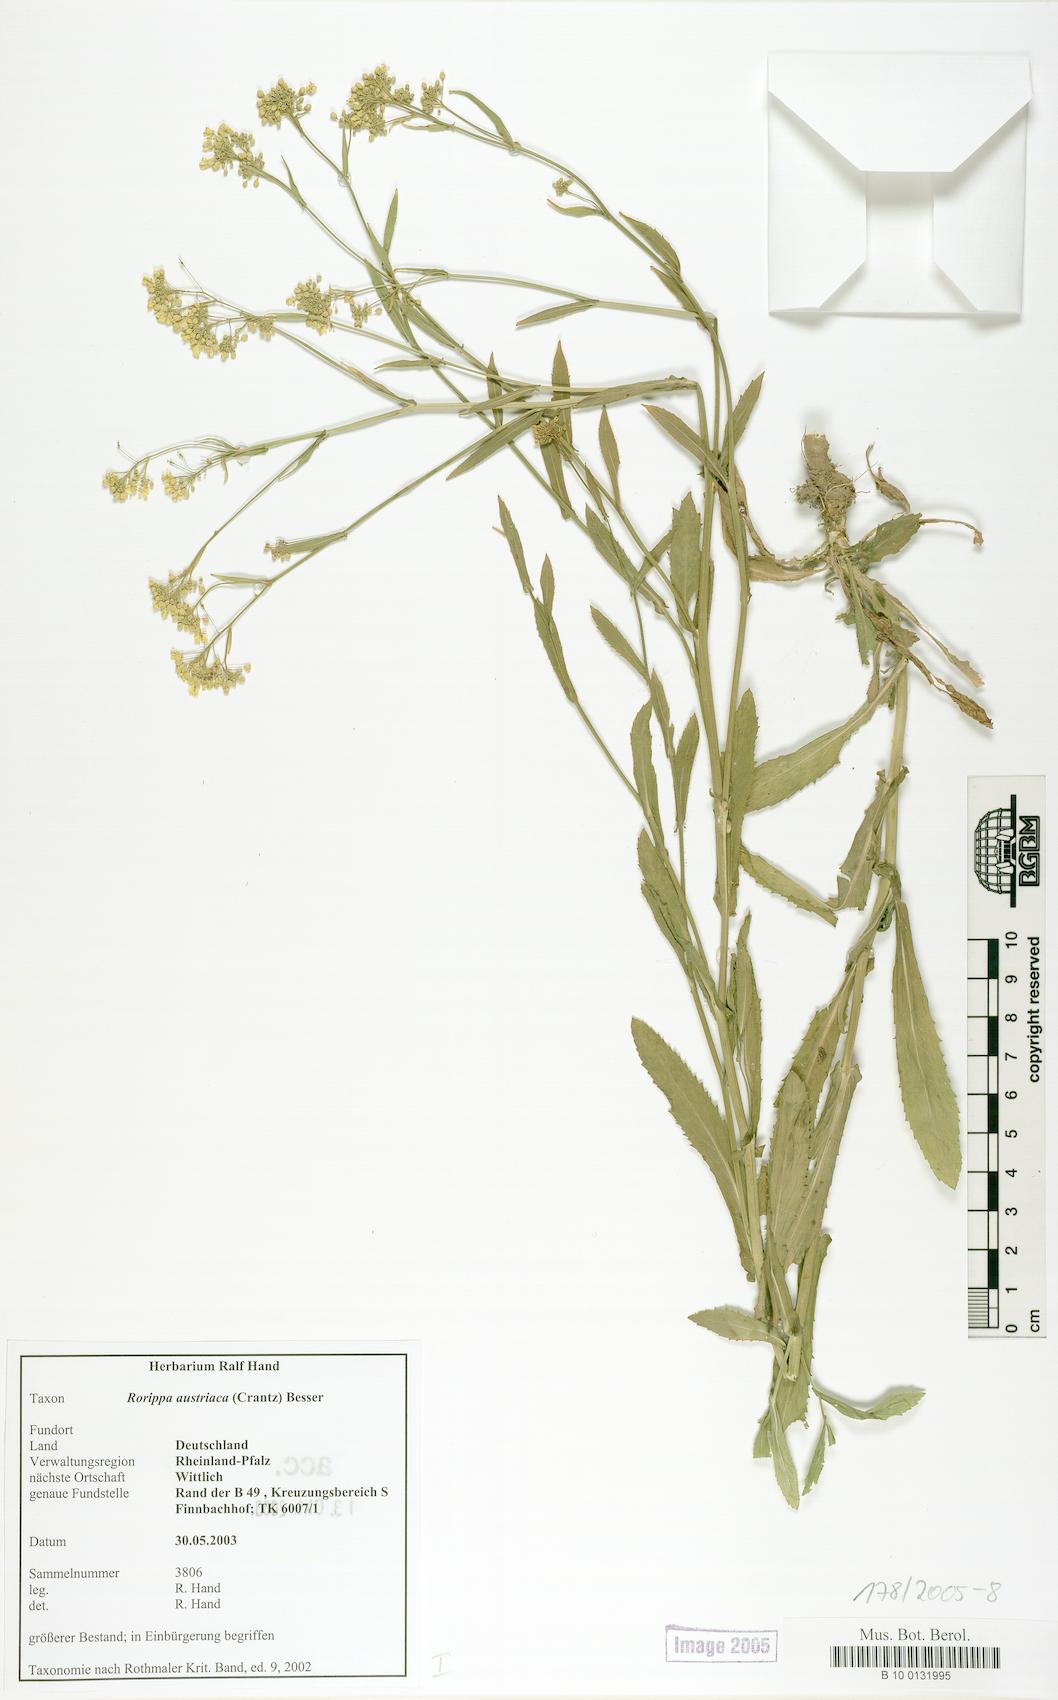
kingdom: Plantae
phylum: Tracheophyta
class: Magnoliopsida
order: Brassicales
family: Brassicaceae
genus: Rorippa
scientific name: Rorippa austriaca
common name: Austrian yellow-cress
